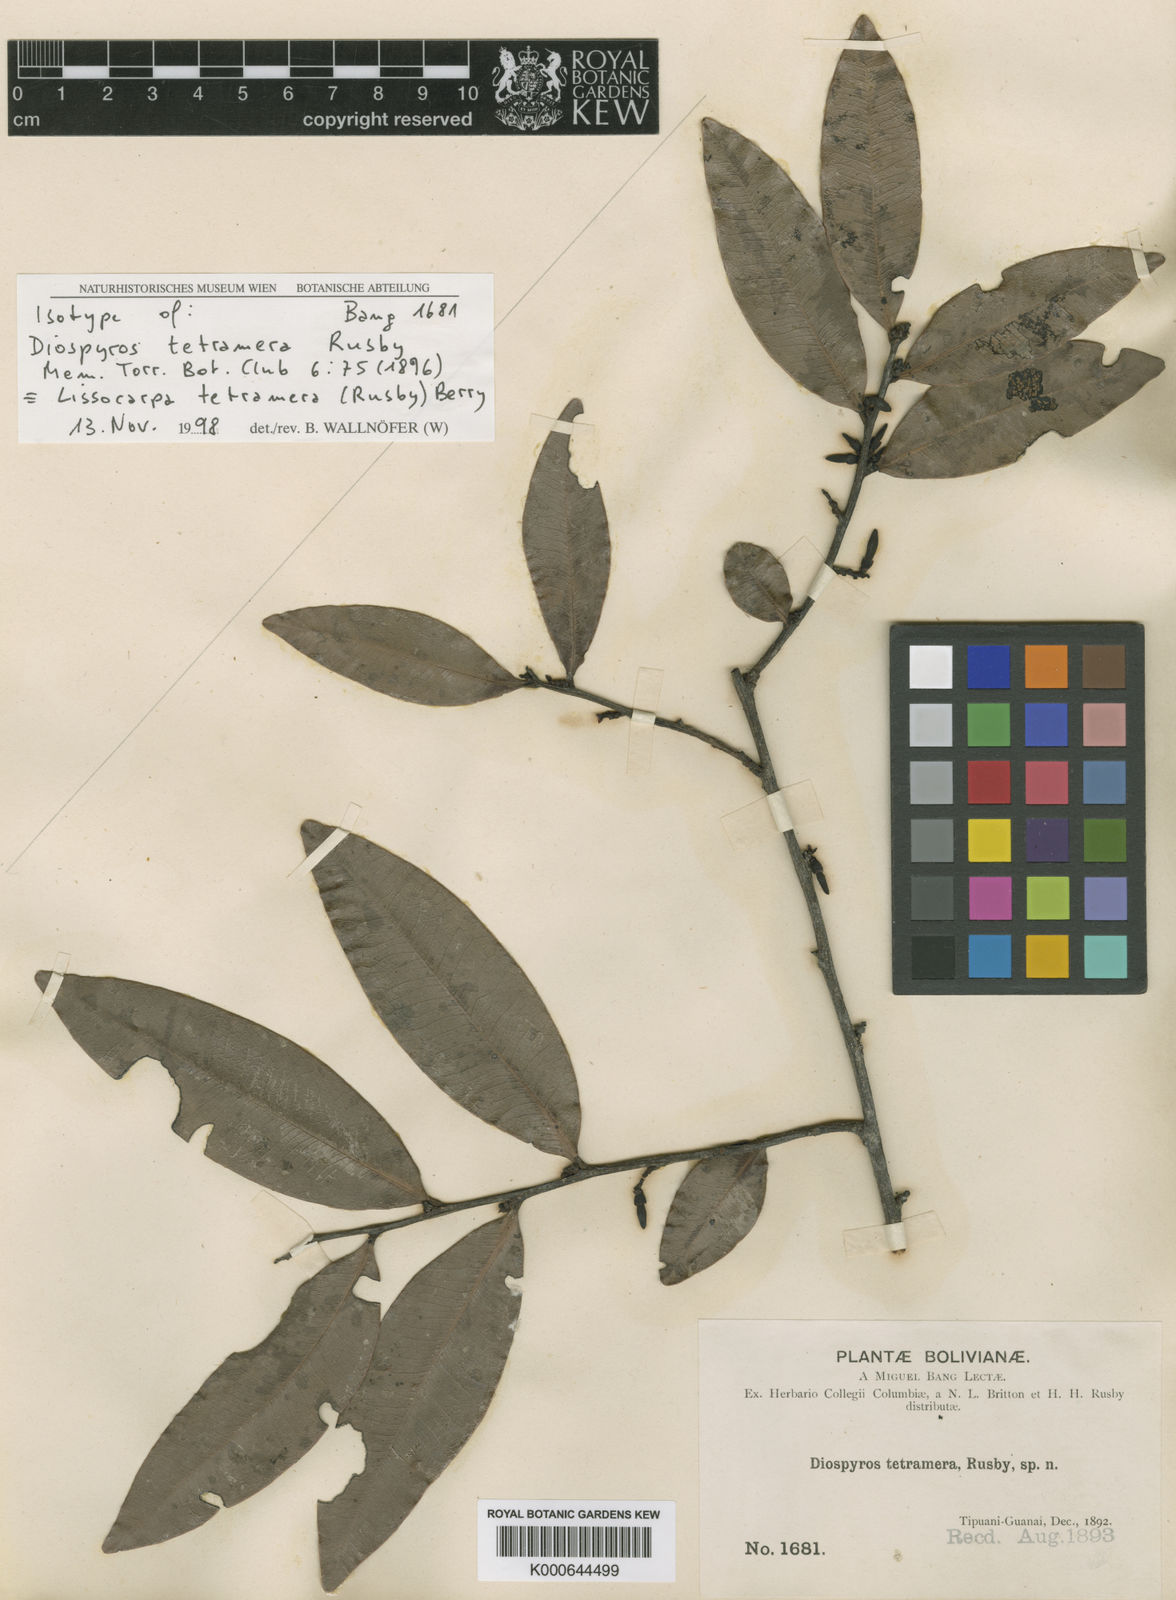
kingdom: Plantae
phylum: Tracheophyta
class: Magnoliopsida
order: Ericales
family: Ebenaceae
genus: Lissocarpa
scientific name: Lissocarpa tetramera
